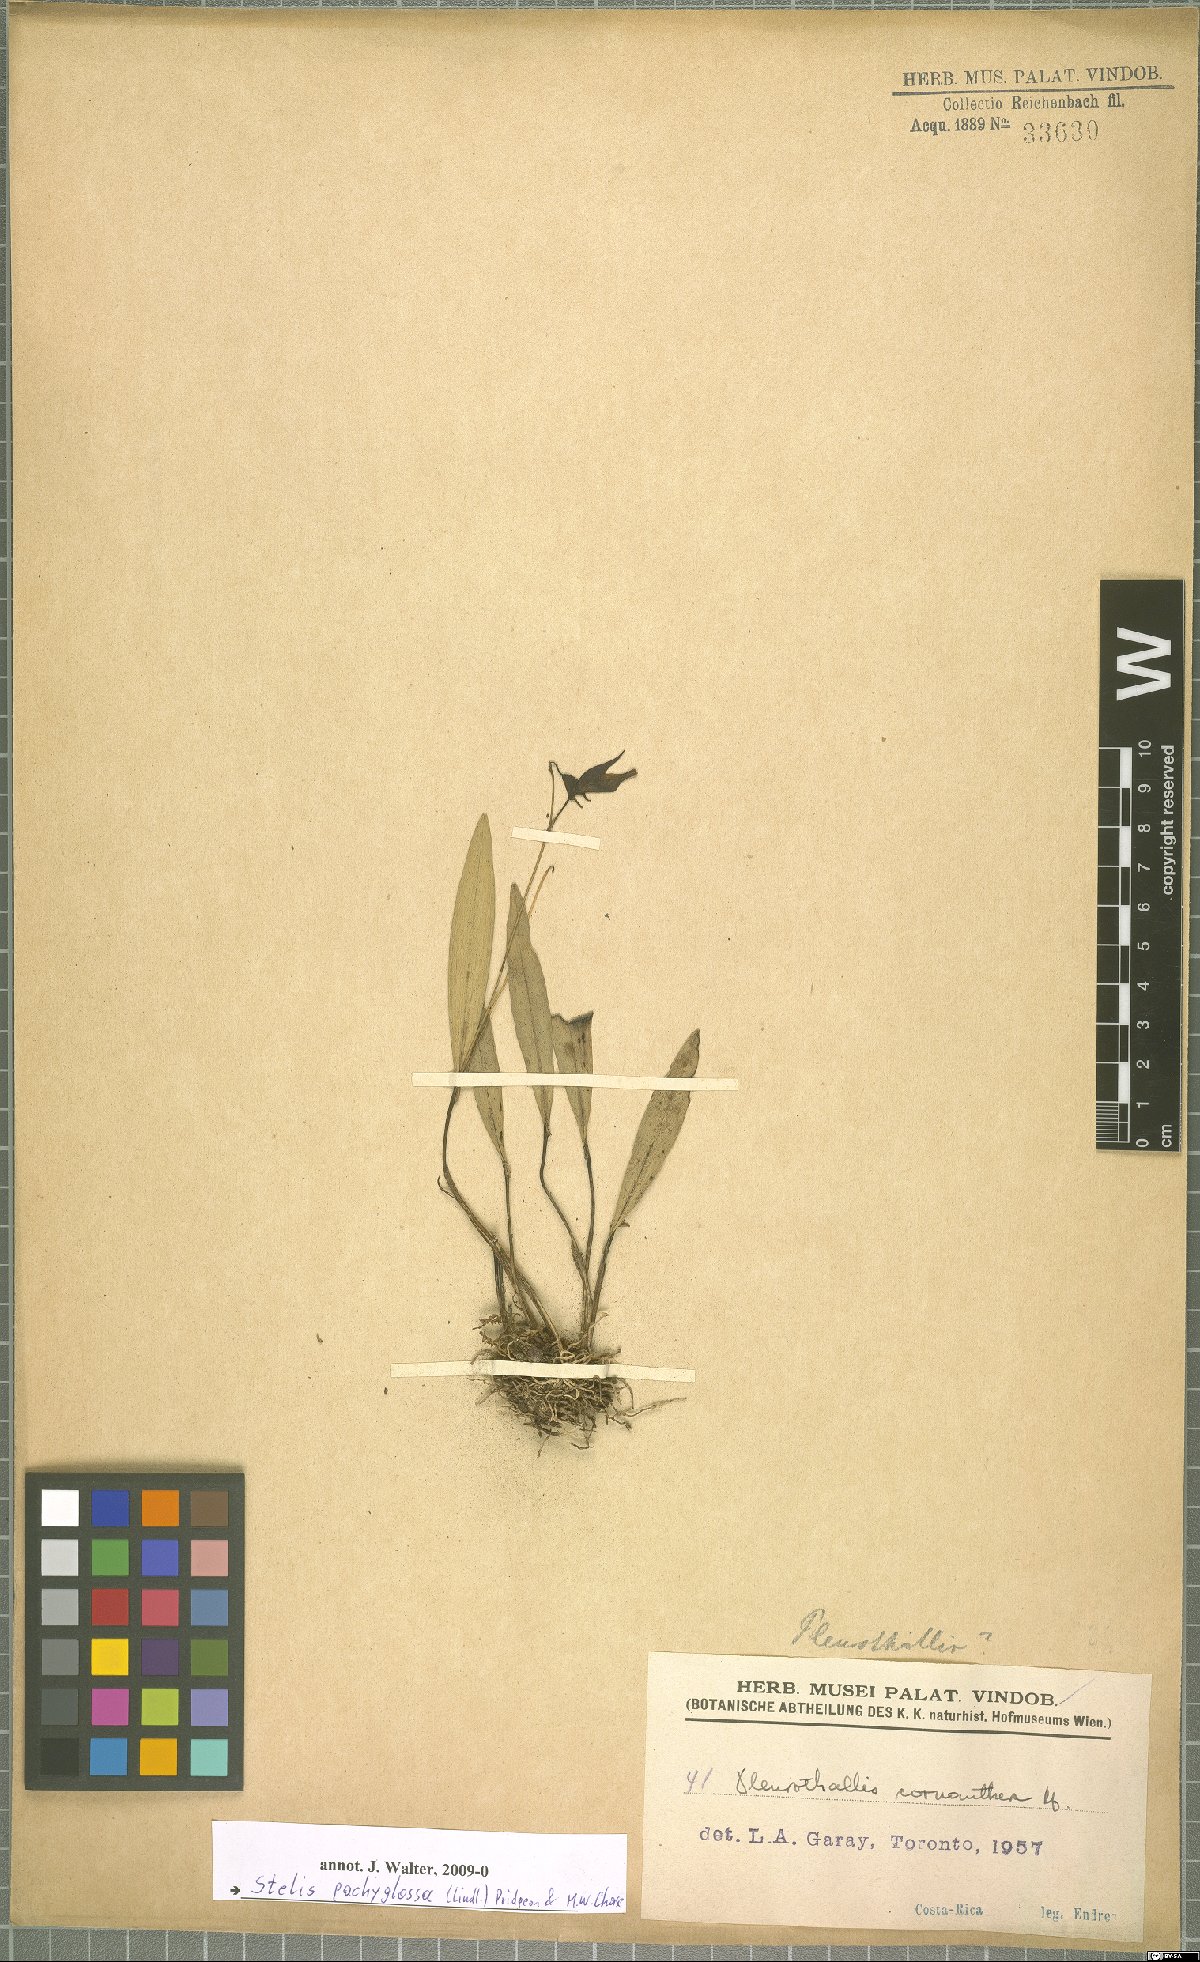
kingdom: Plantae
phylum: Tracheophyta
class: Liliopsida
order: Asparagales
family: Orchidaceae
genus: Stelis
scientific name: Stelis pachyglossa
